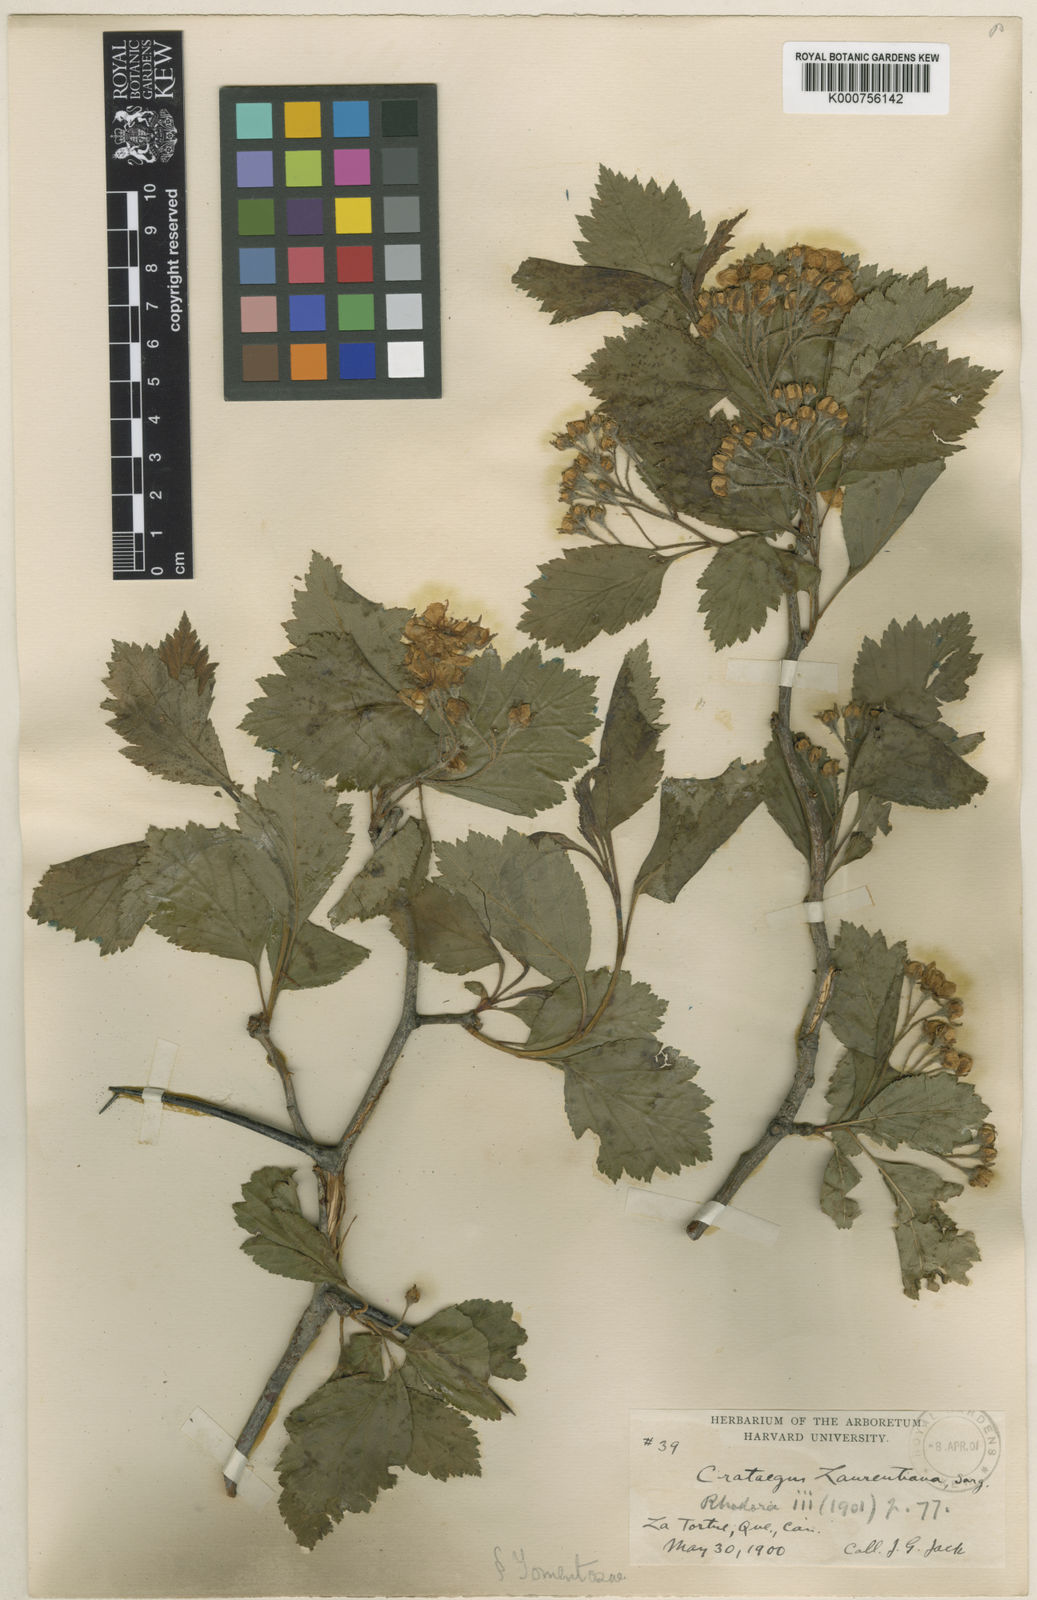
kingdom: Plantae
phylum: Tracheophyta
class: Magnoliopsida
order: Rosales
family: Rosaceae
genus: Crataegus
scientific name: Crataegus jonesiae
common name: Jones' hawthorn
